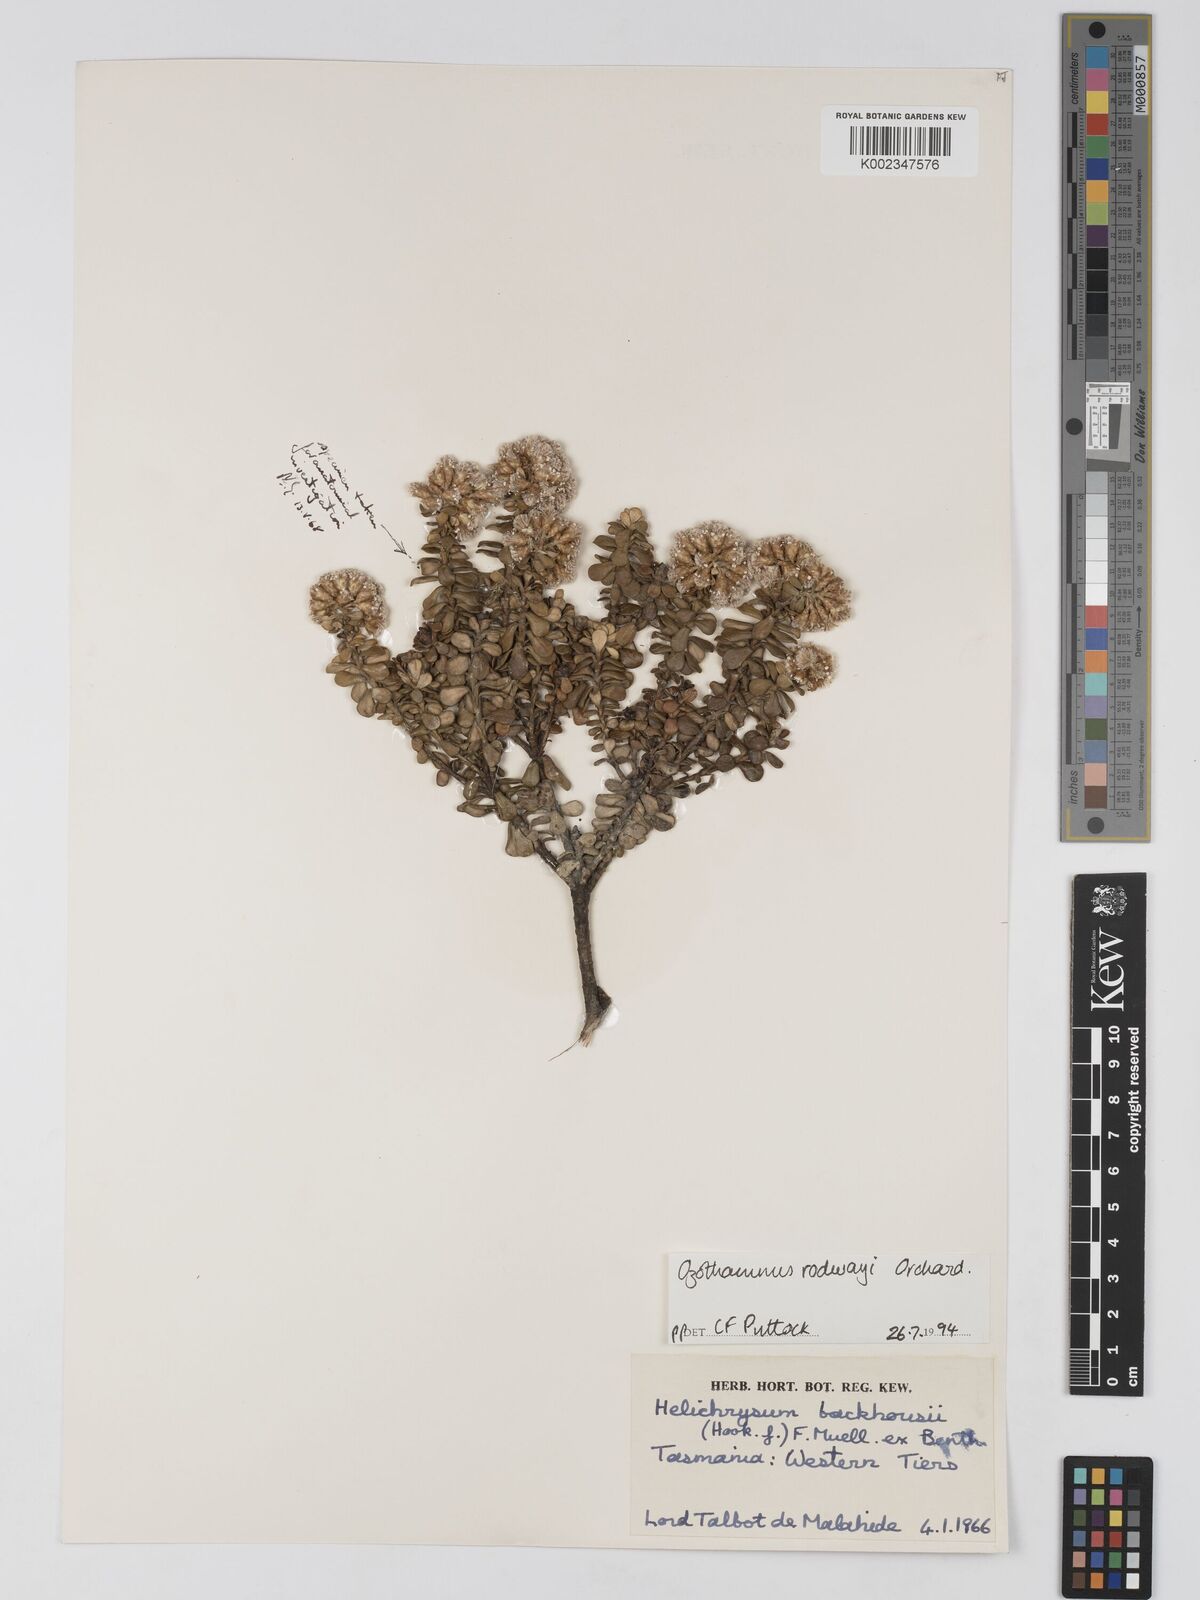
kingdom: Plantae
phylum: Tracheophyta
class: Magnoliopsida
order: Asterales
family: Asteraceae
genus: Ozothamnus
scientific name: Ozothamnus rodwayi
